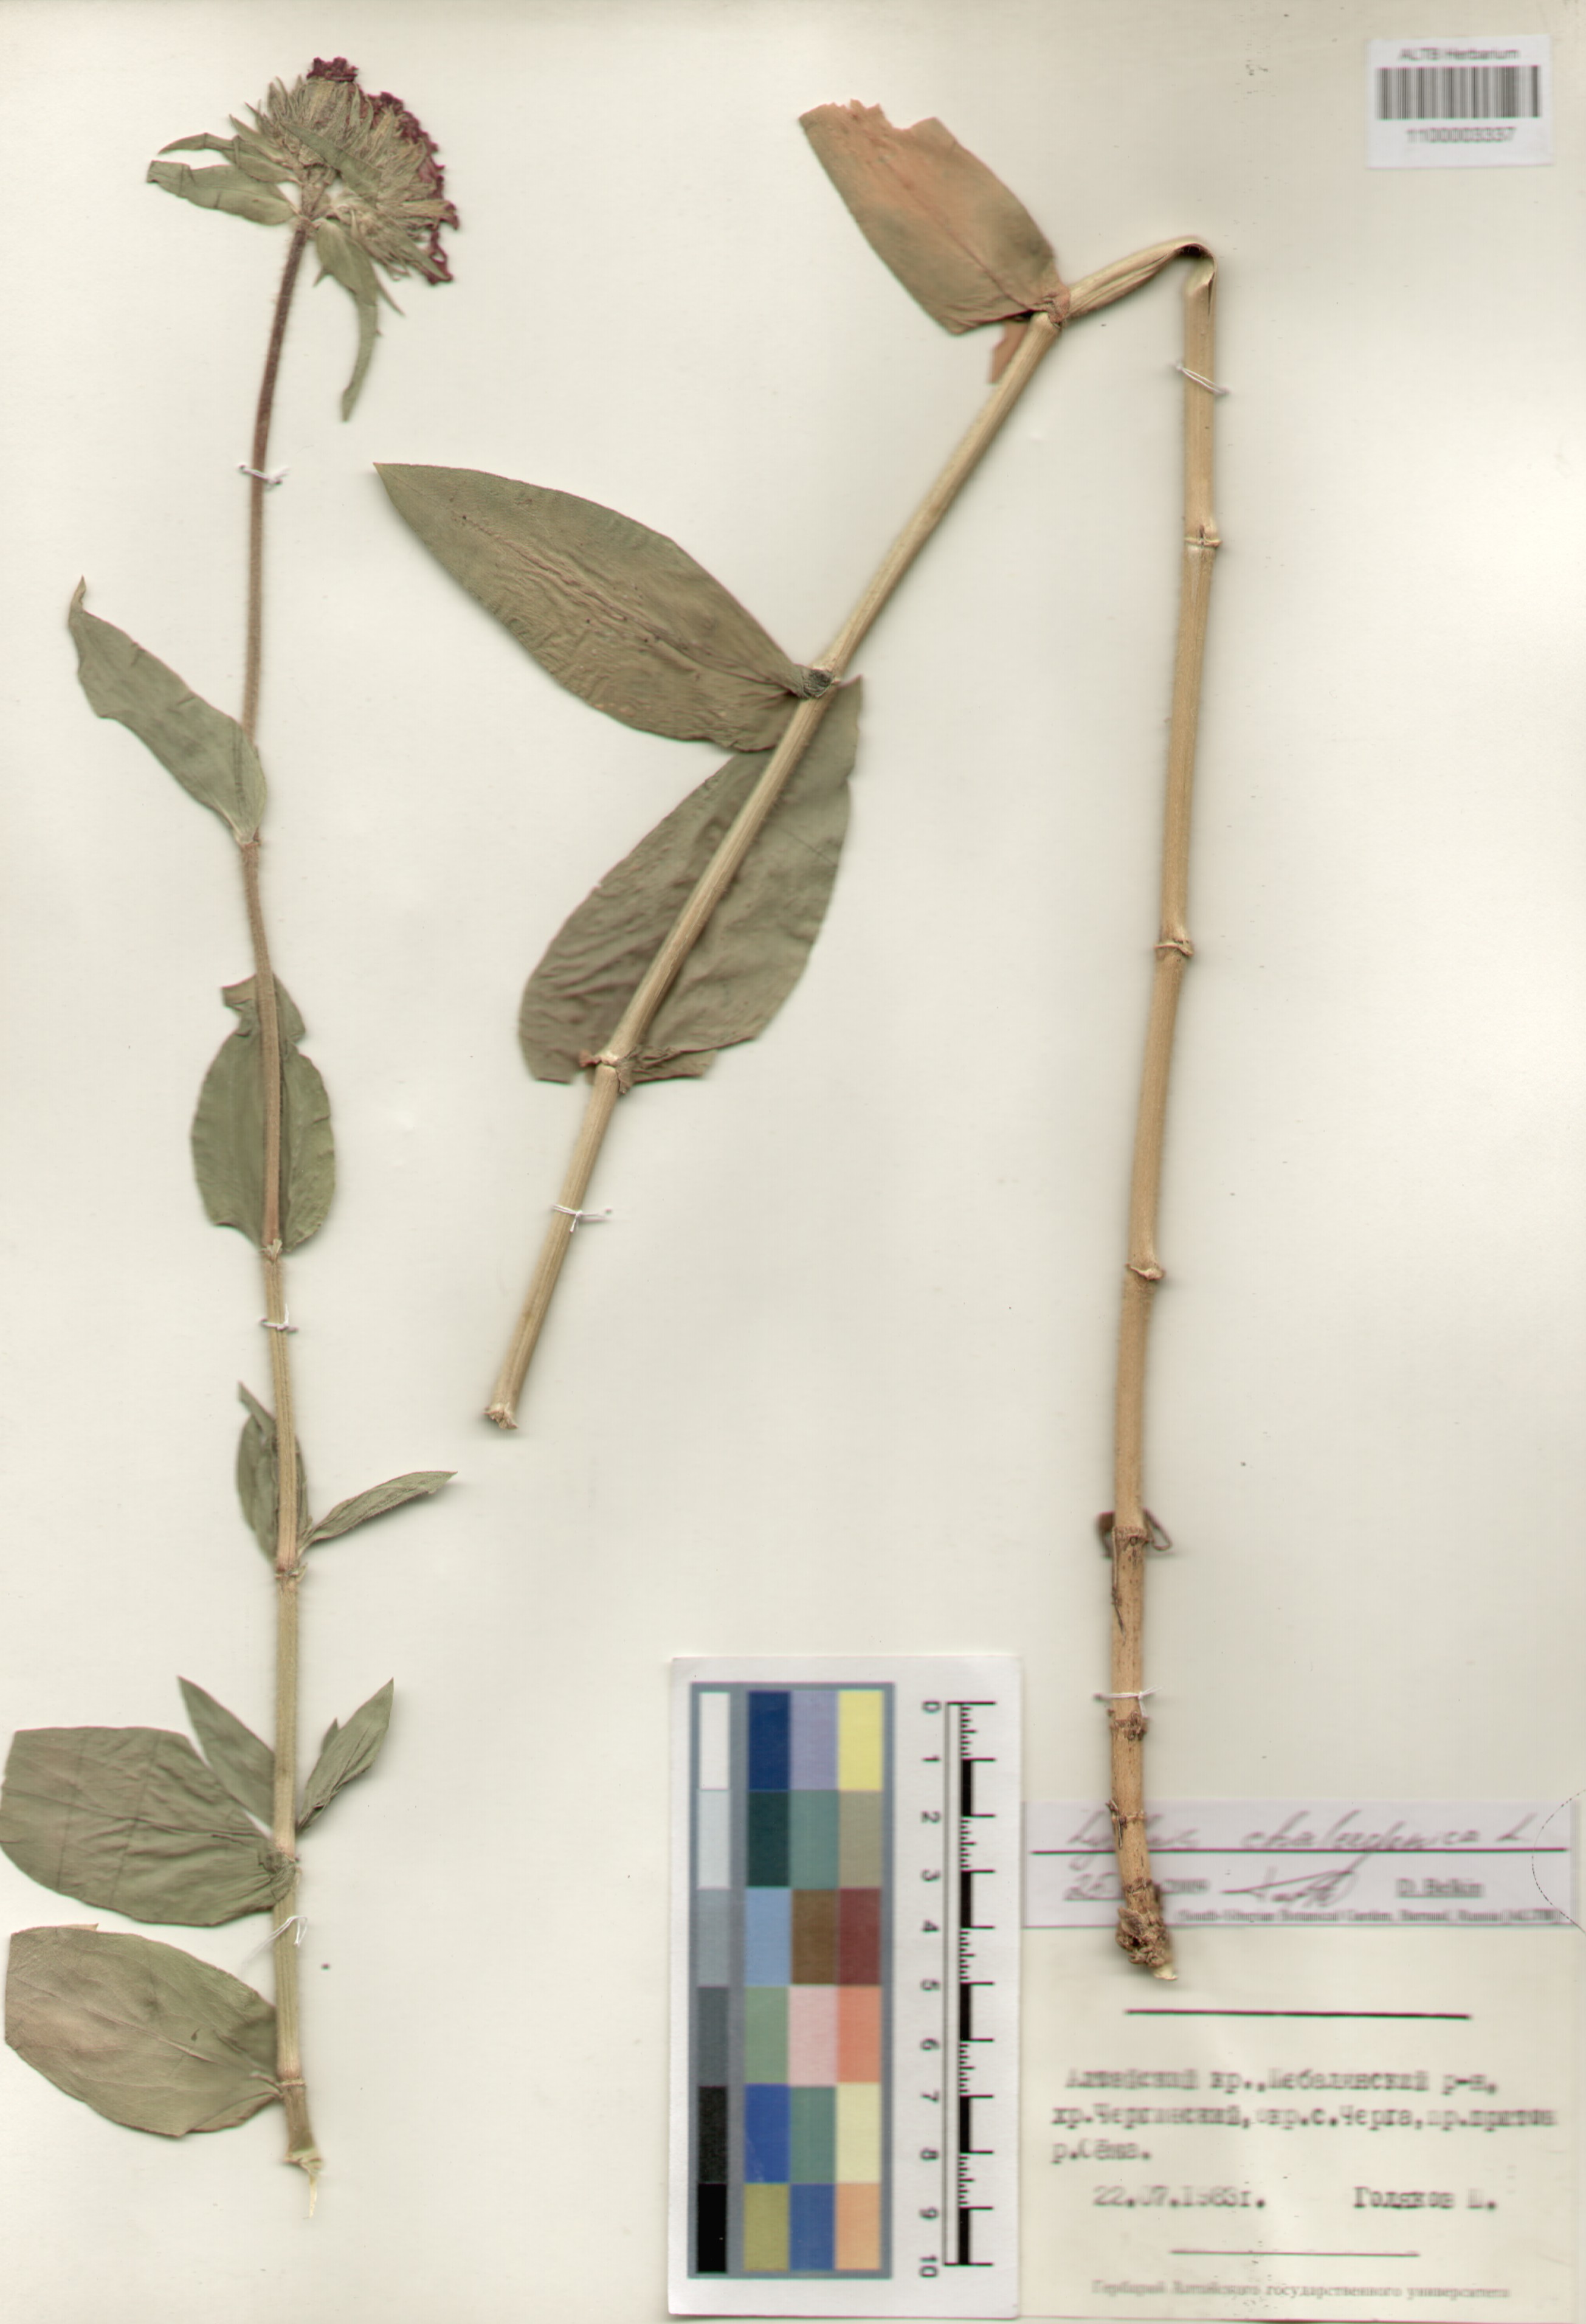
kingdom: Plantae
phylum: Tracheophyta
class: Magnoliopsida
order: Caryophyllales
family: Caryophyllaceae
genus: Silene
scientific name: Silene chalcedonica
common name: Maltese-cross
